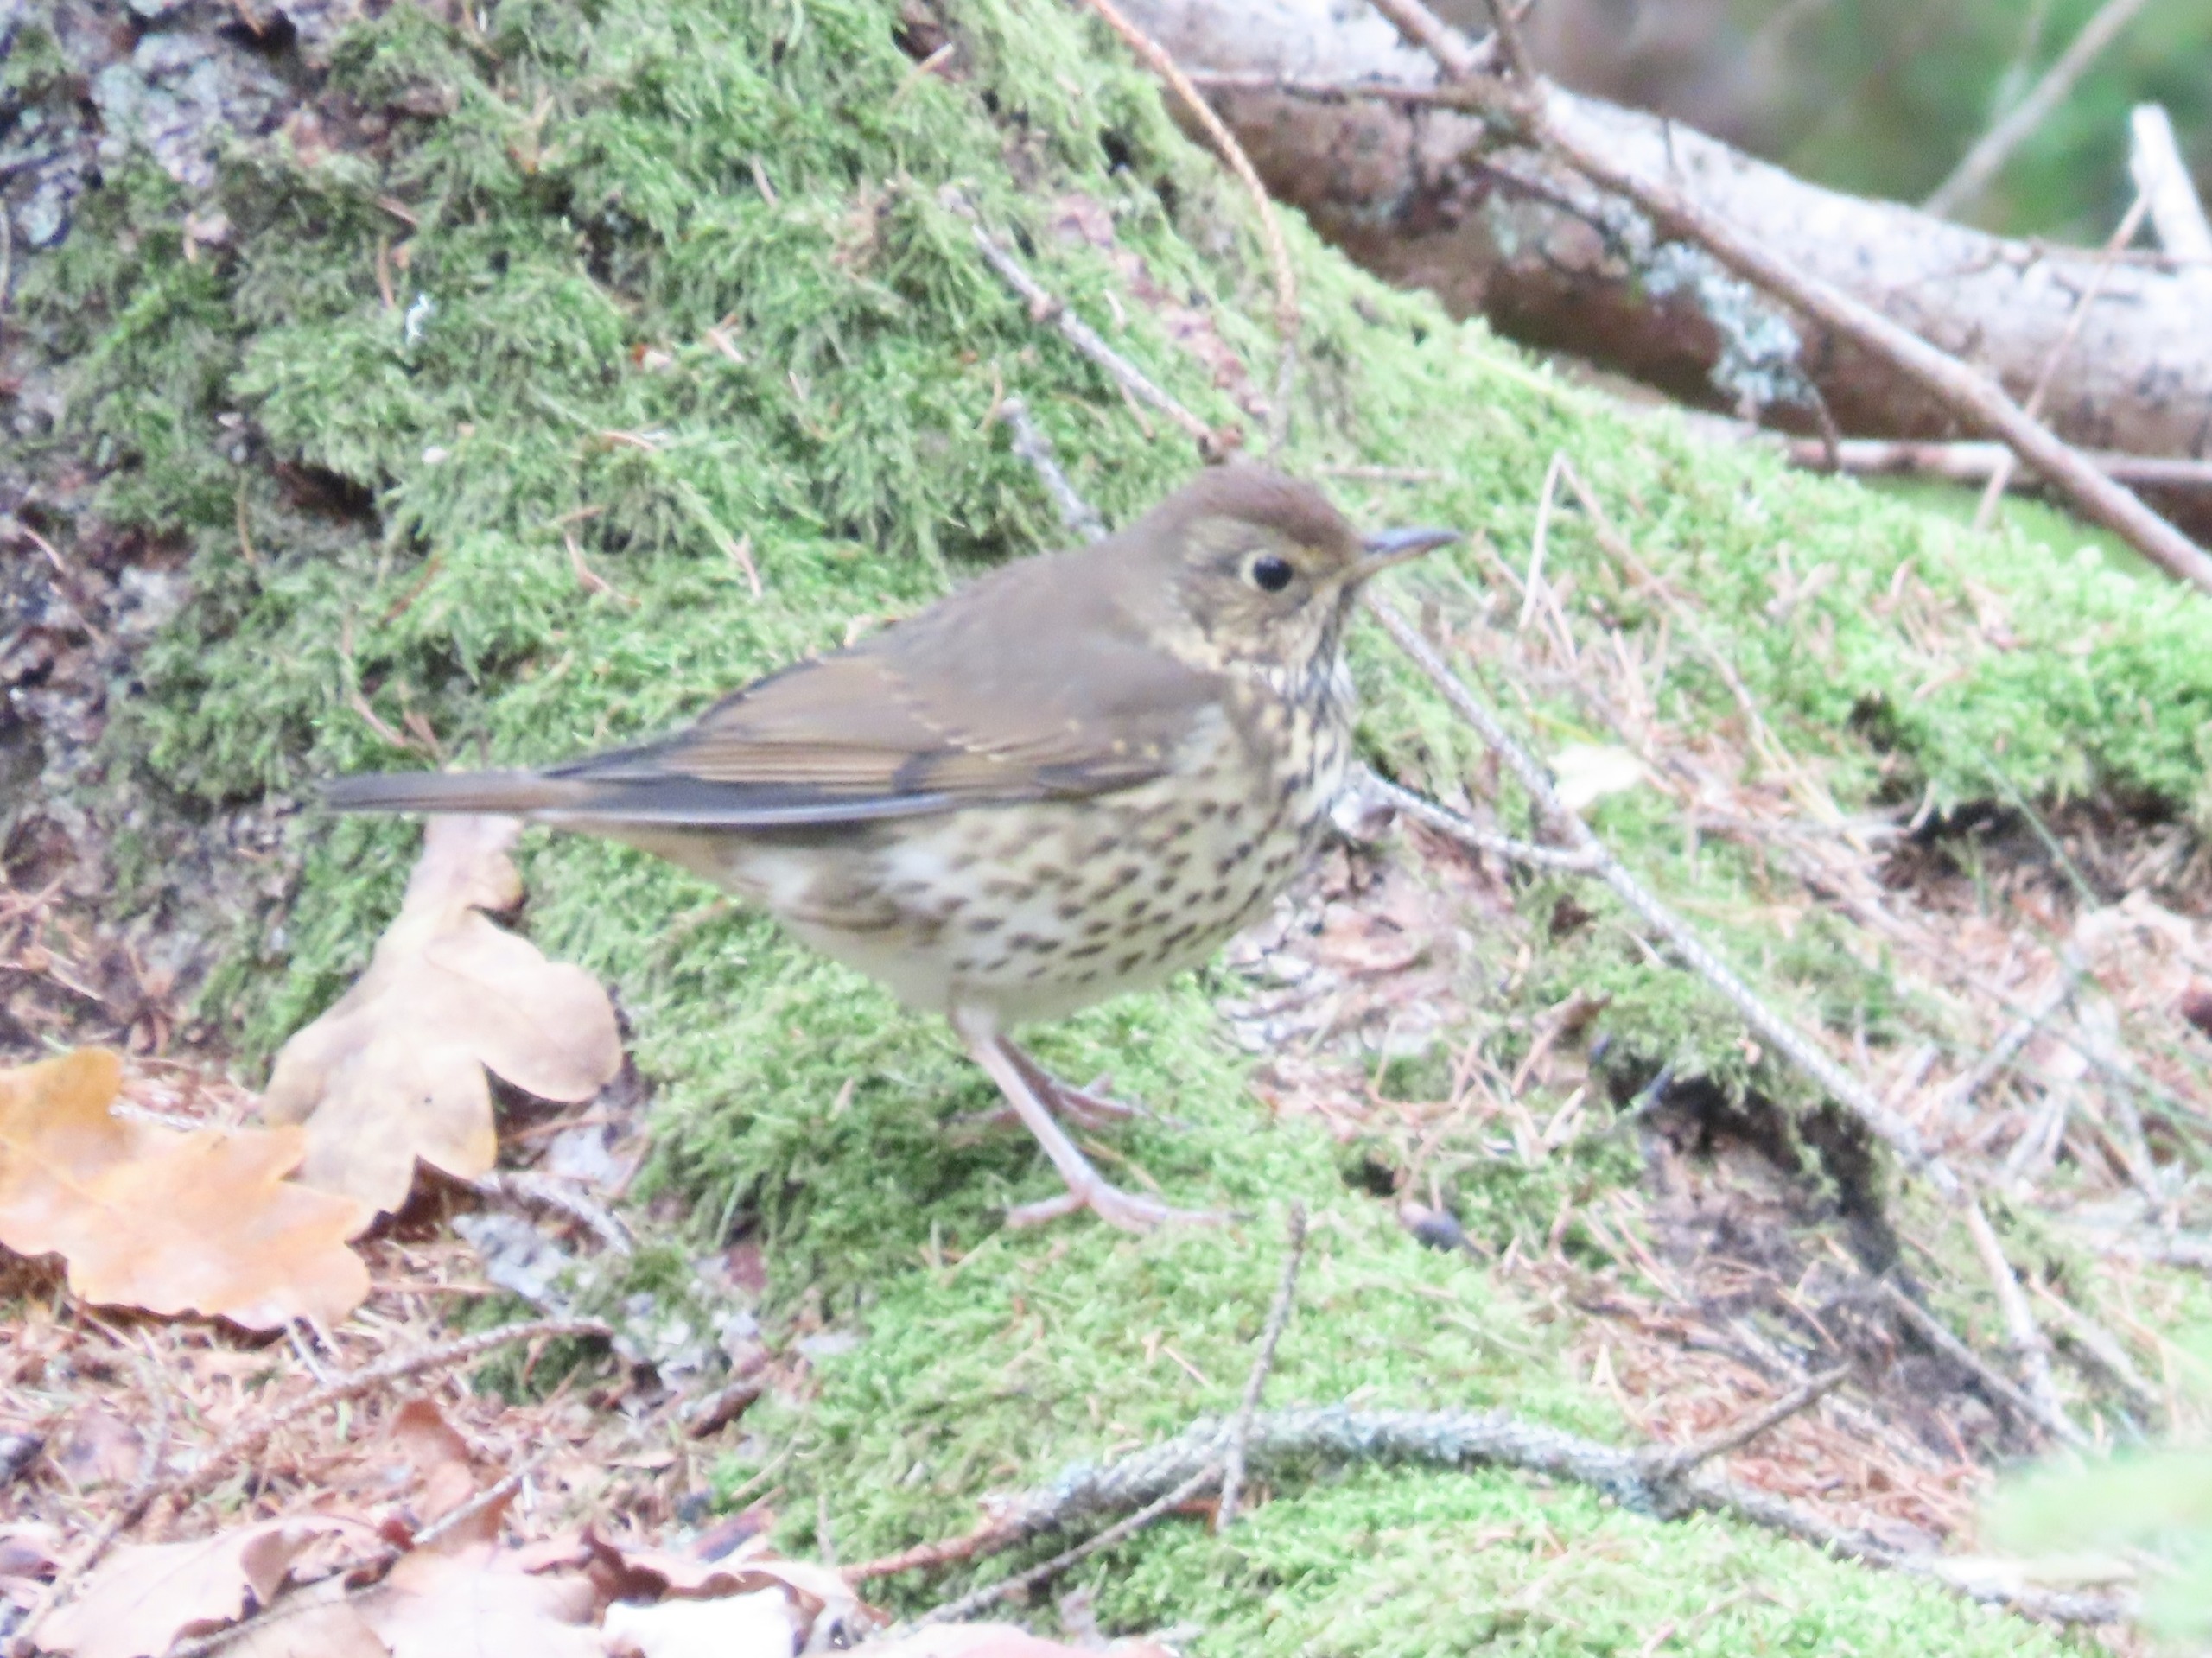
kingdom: Animalia
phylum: Chordata
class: Aves
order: Passeriformes
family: Turdidae
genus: Turdus
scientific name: Turdus philomelos
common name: Sangdrossel
